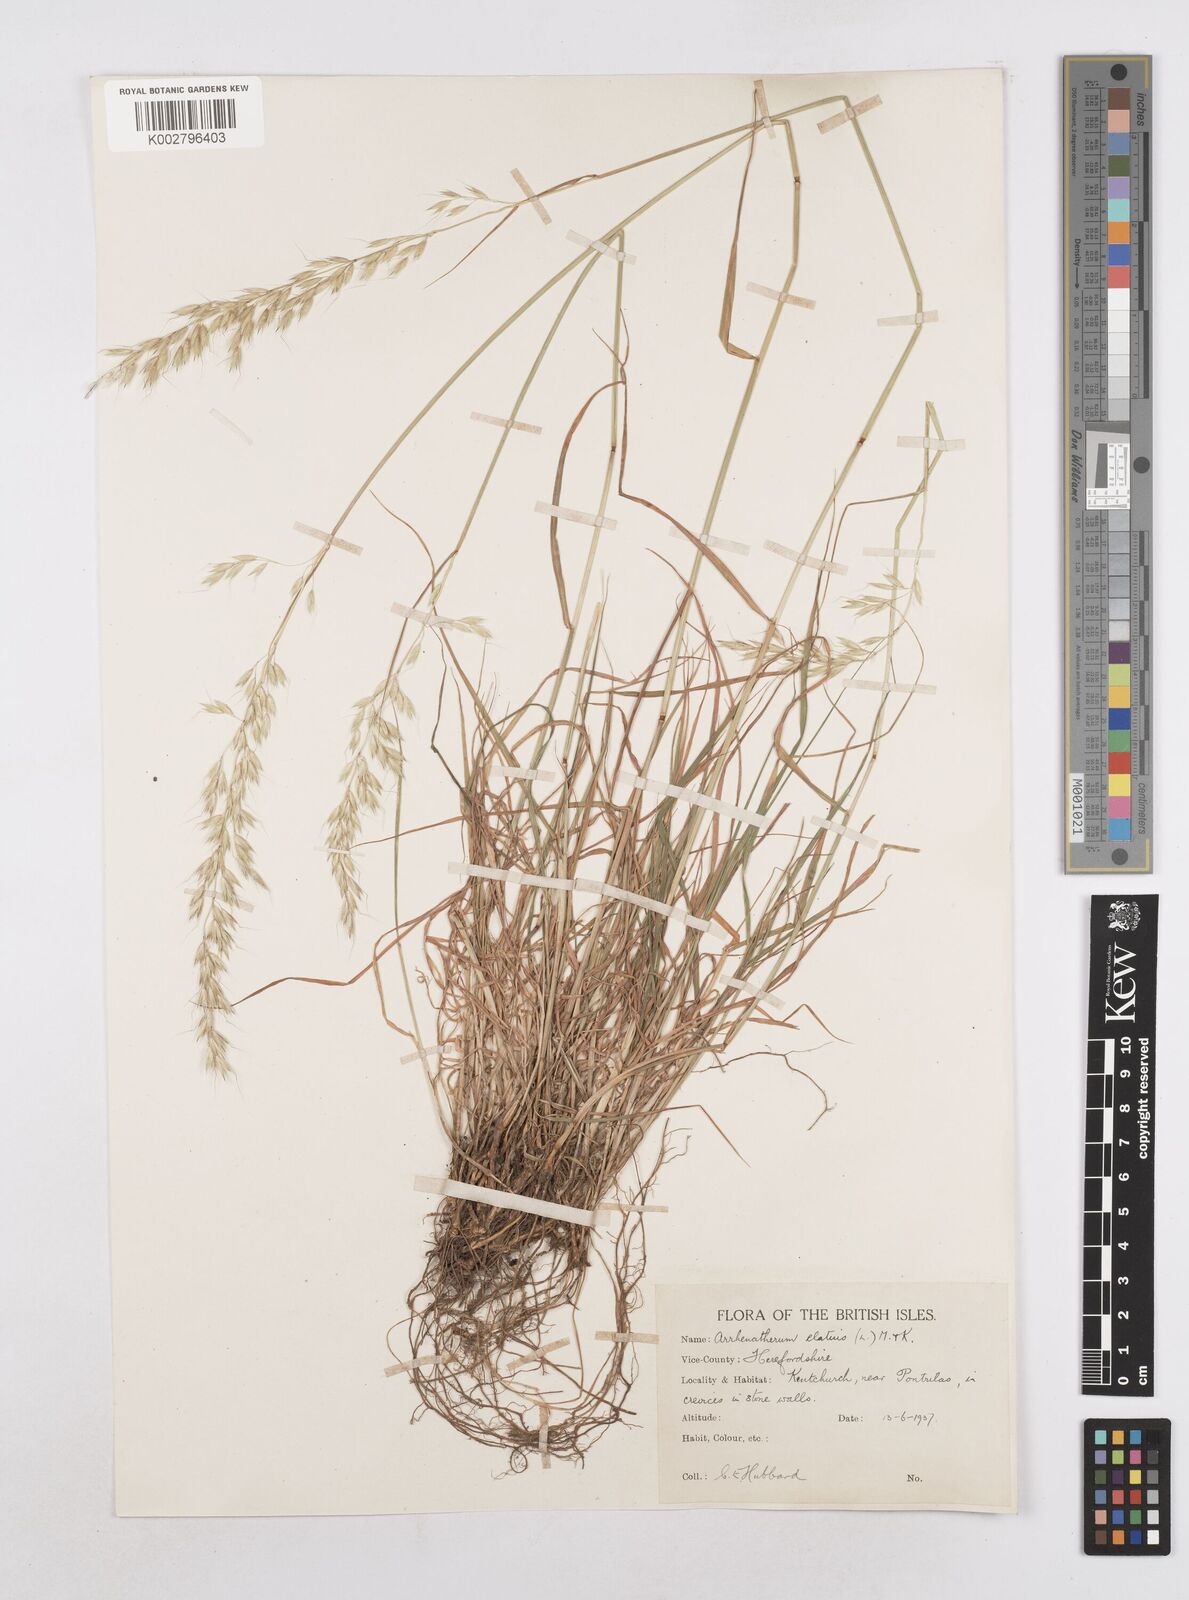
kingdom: Plantae
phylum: Tracheophyta
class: Liliopsida
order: Poales
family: Poaceae
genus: Arrhenatherum
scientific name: Arrhenatherum elatius
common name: Tall oatgrass
